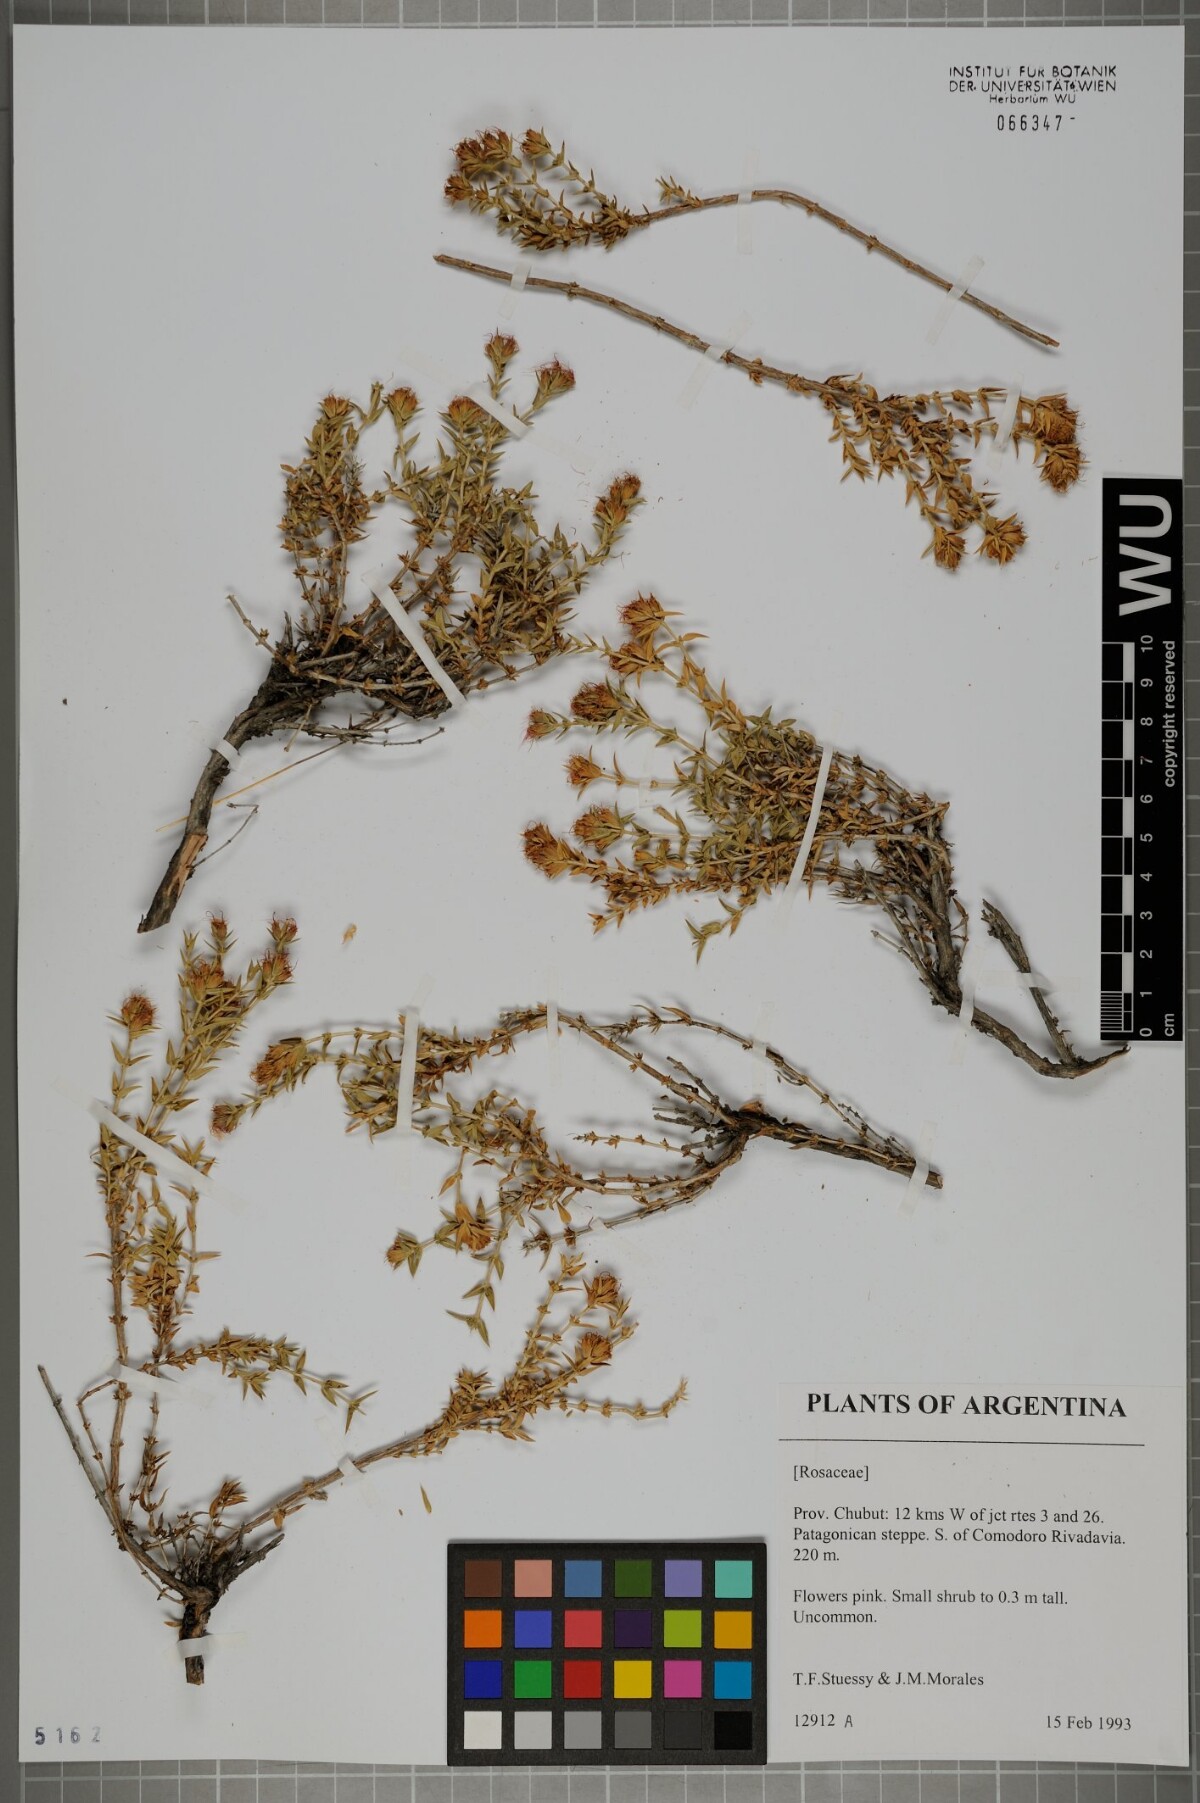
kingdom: Plantae
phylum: Tracheophyta
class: Magnoliopsida
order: Rosales
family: Rosaceae
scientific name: Rosaceae
